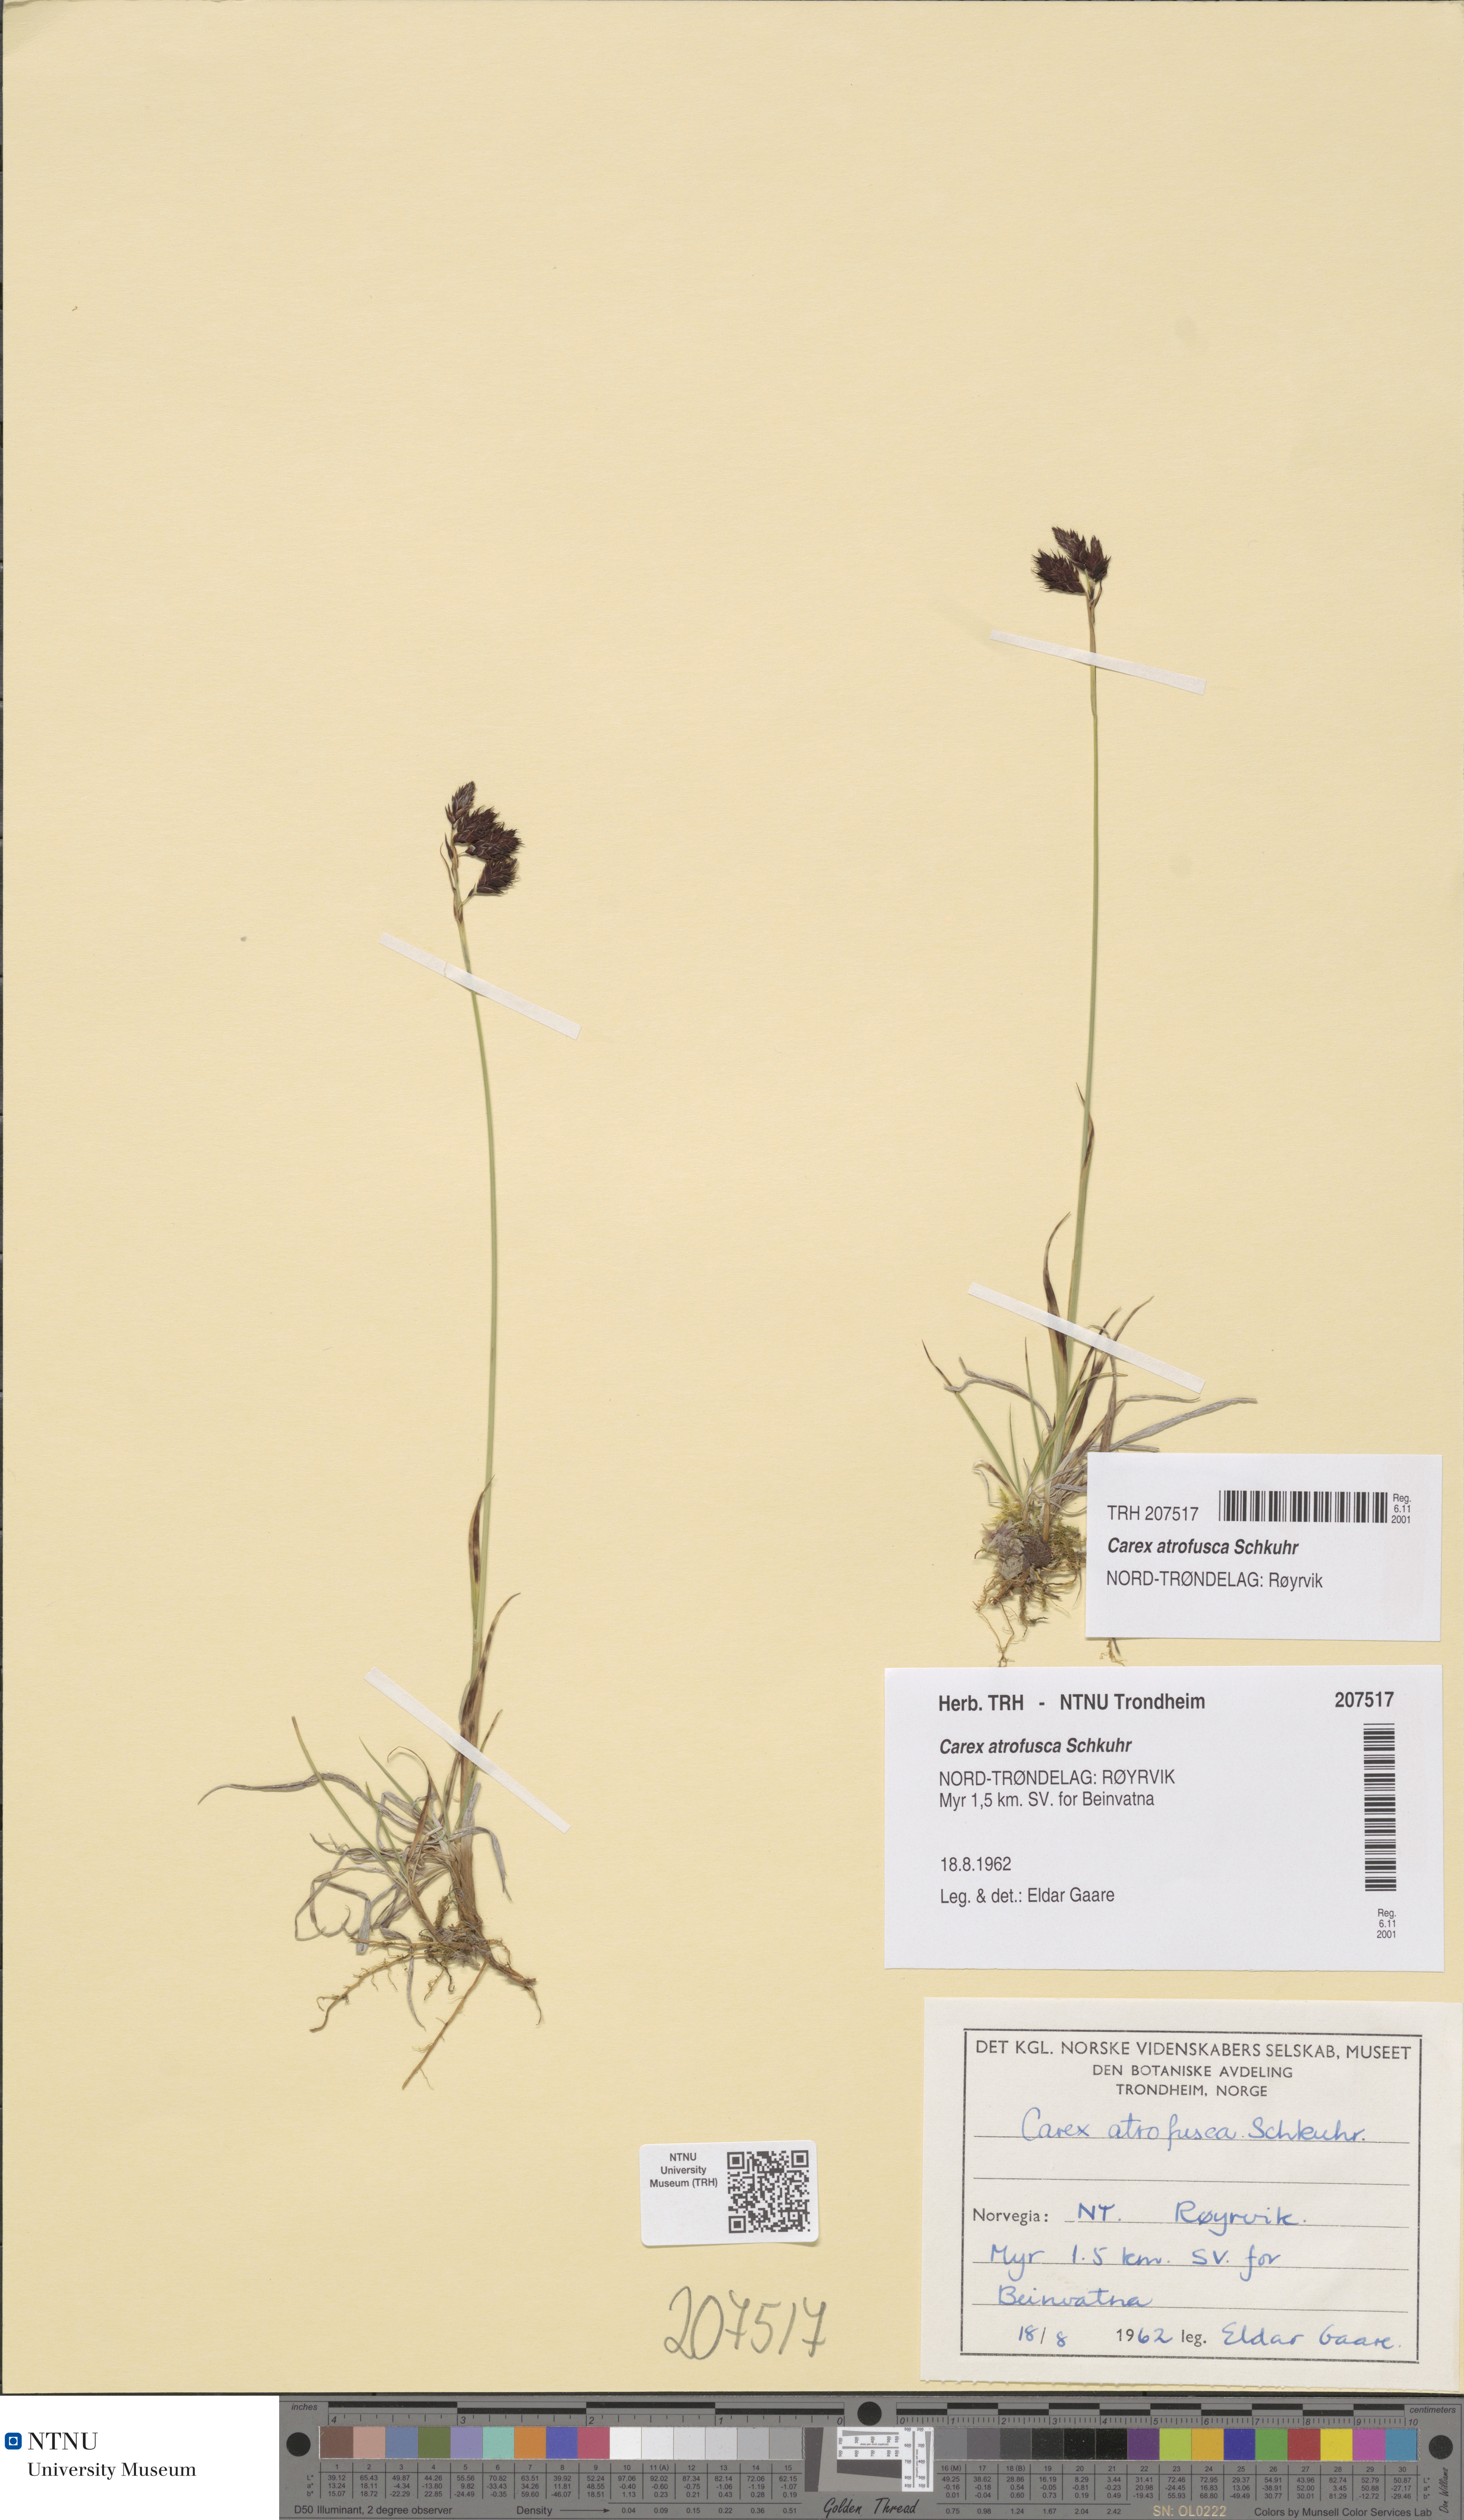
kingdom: Plantae
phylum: Tracheophyta
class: Liliopsida
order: Poales
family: Cyperaceae
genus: Carex
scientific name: Carex atrofusca
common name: Scorched alpine-sedge
